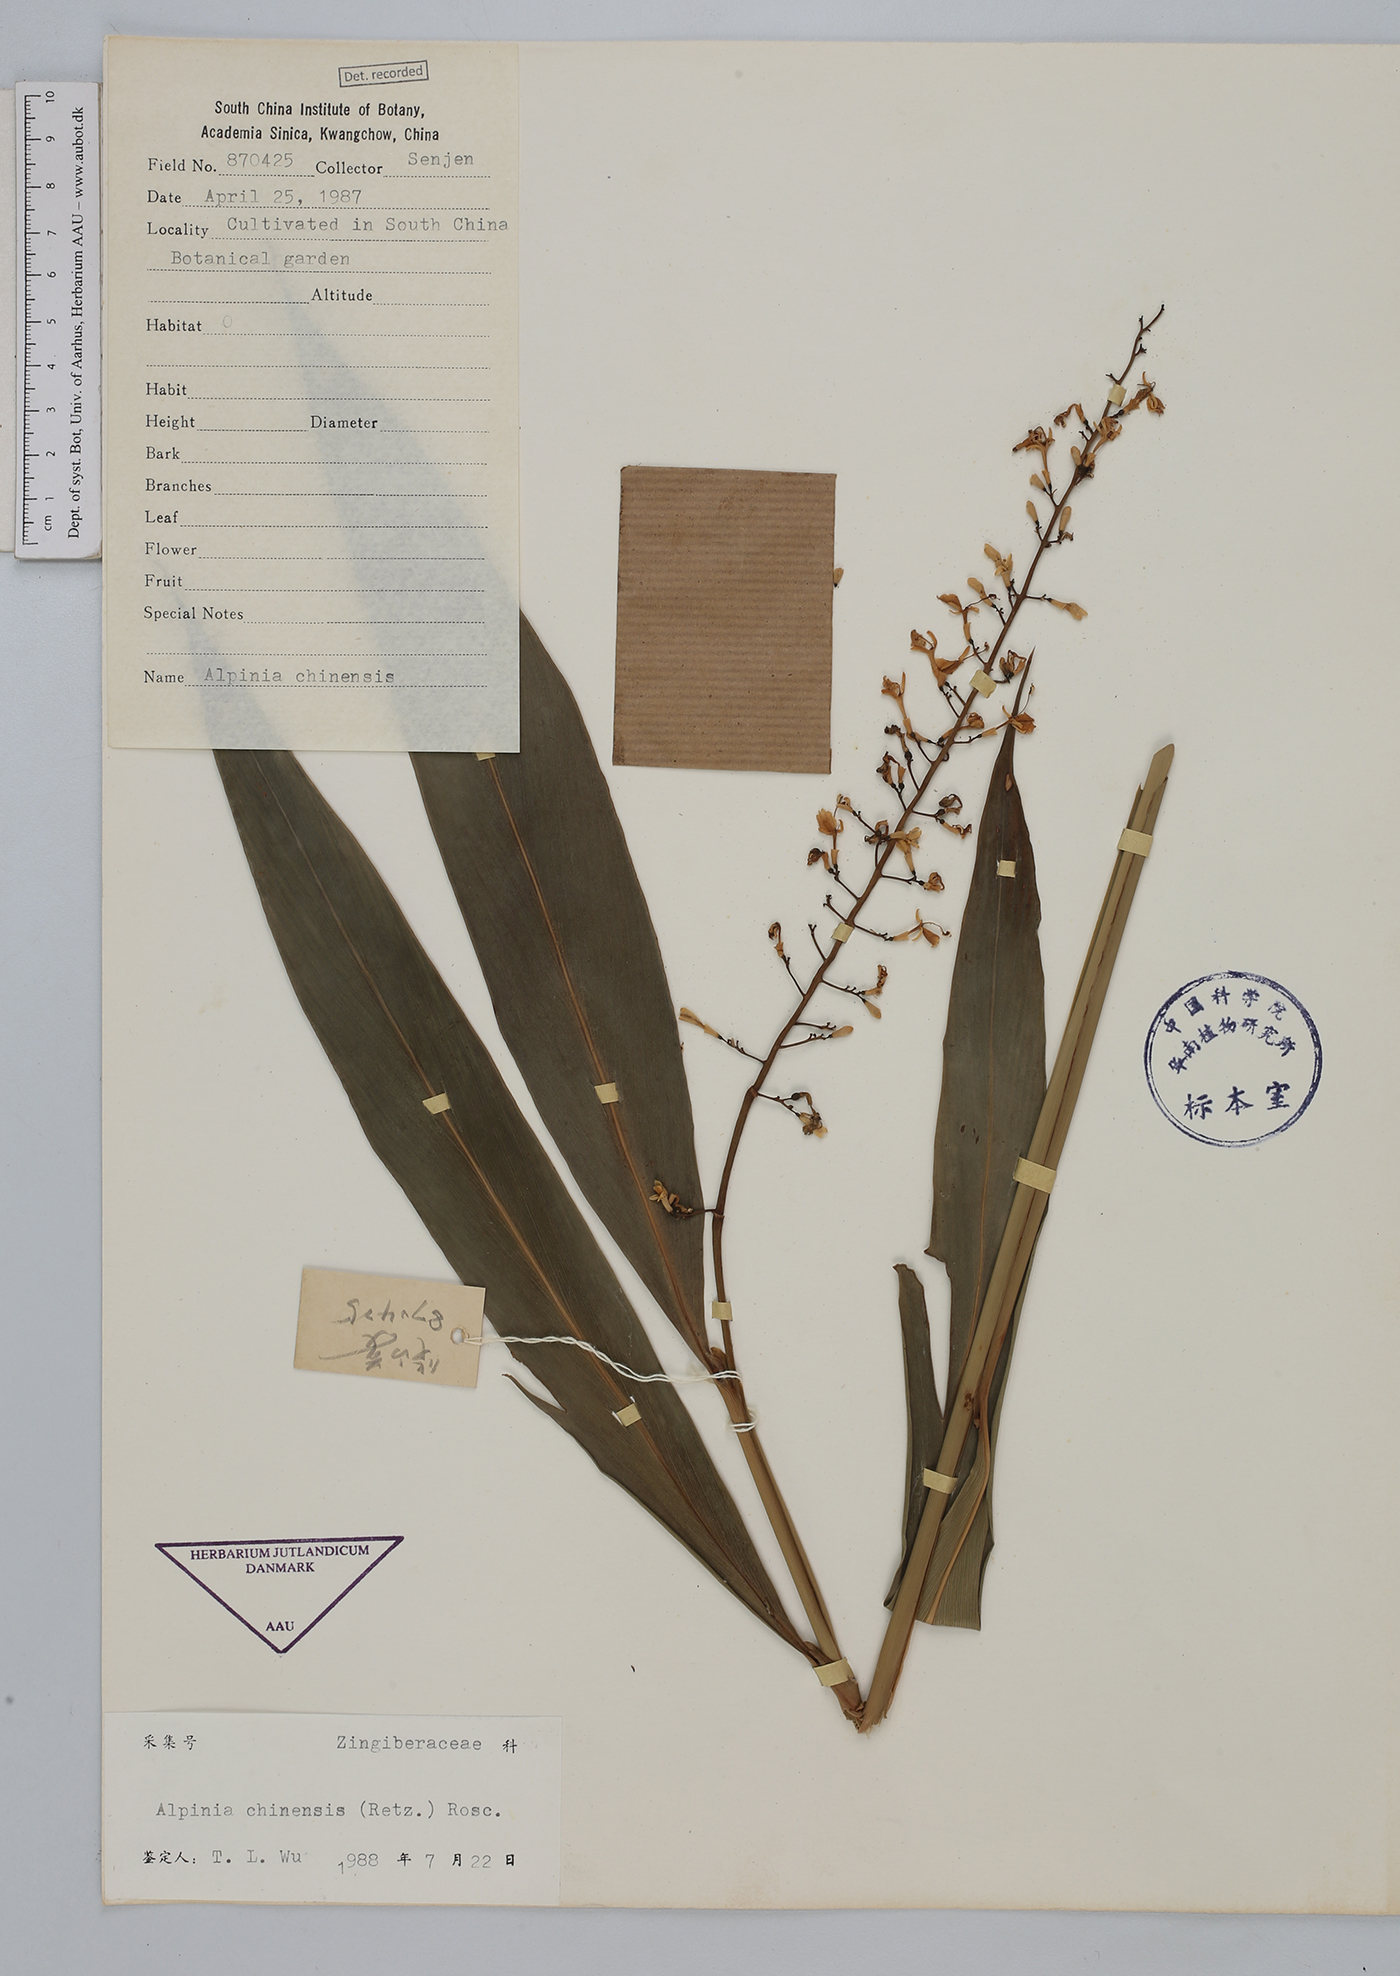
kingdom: Plantae
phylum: Tracheophyta
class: Liliopsida
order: Zingiberales
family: Zingiberaceae
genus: Alpinia
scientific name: Alpinia chinensis
